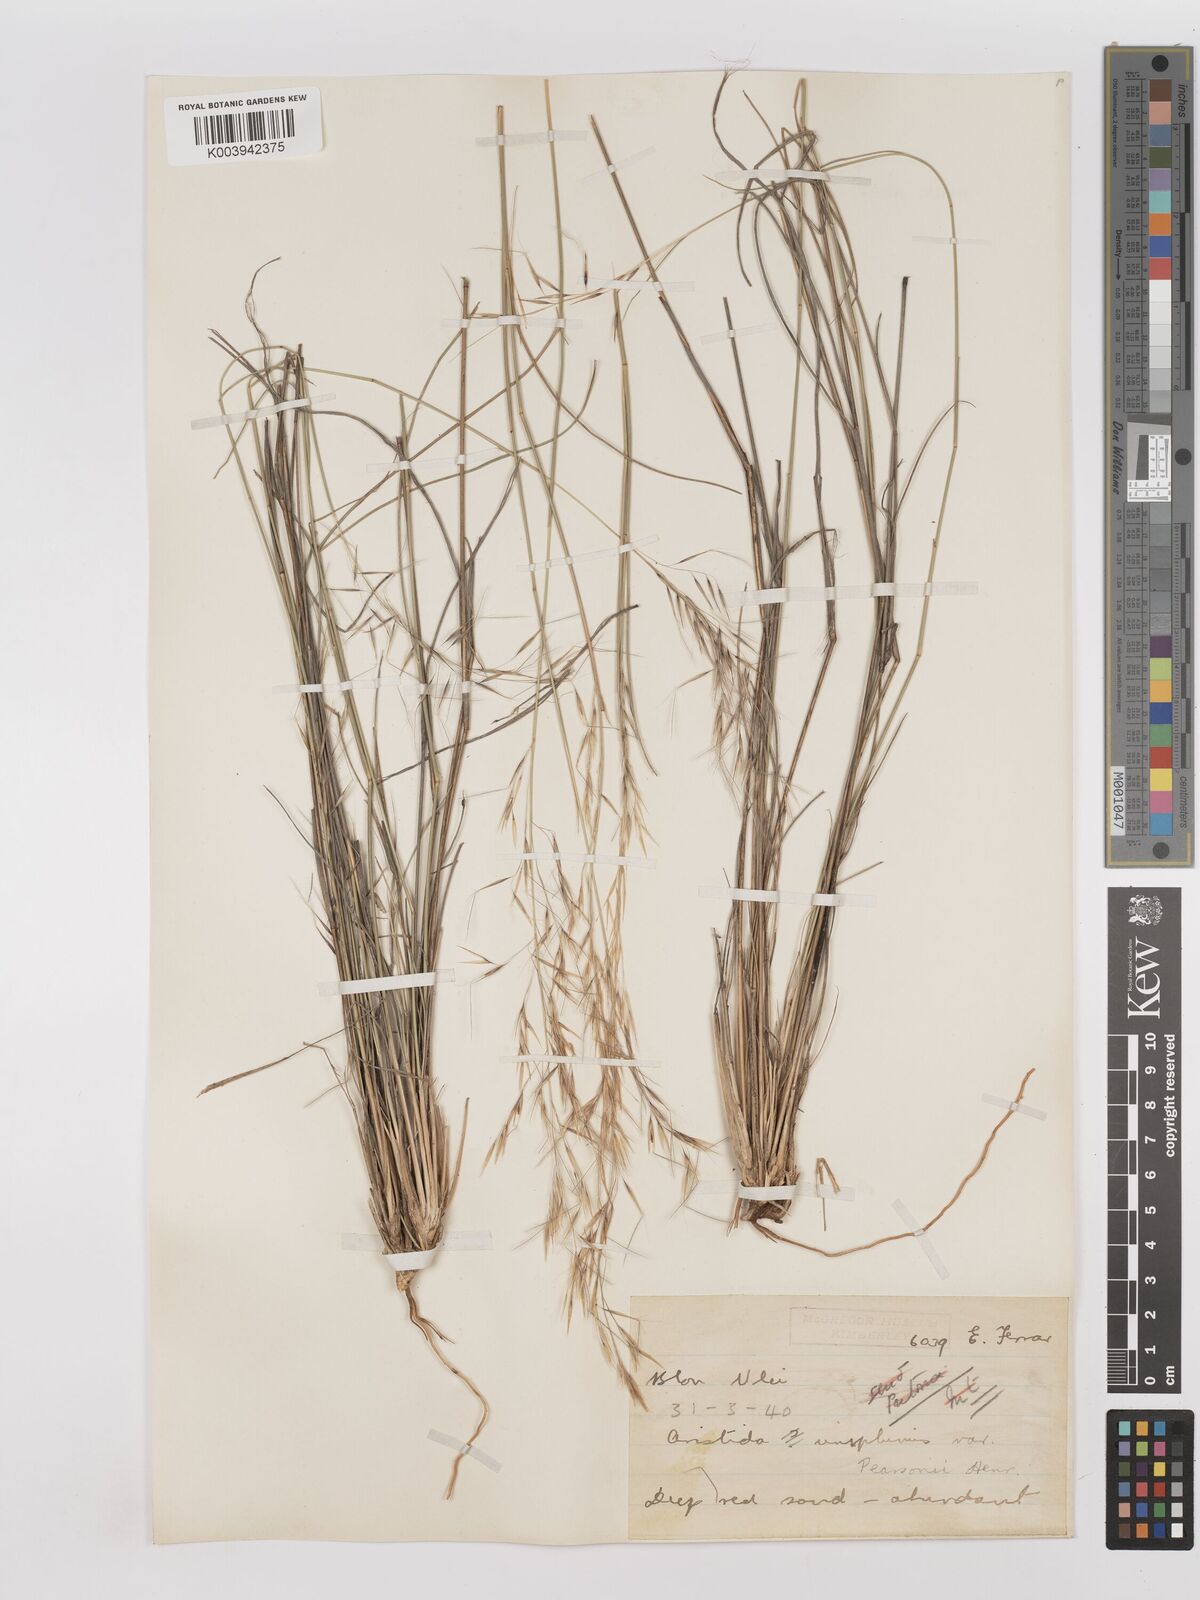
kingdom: Plantae
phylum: Tracheophyta
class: Liliopsida
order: Poales
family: Poaceae
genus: Stipagrostis
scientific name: Stipagrostis uniplumis
